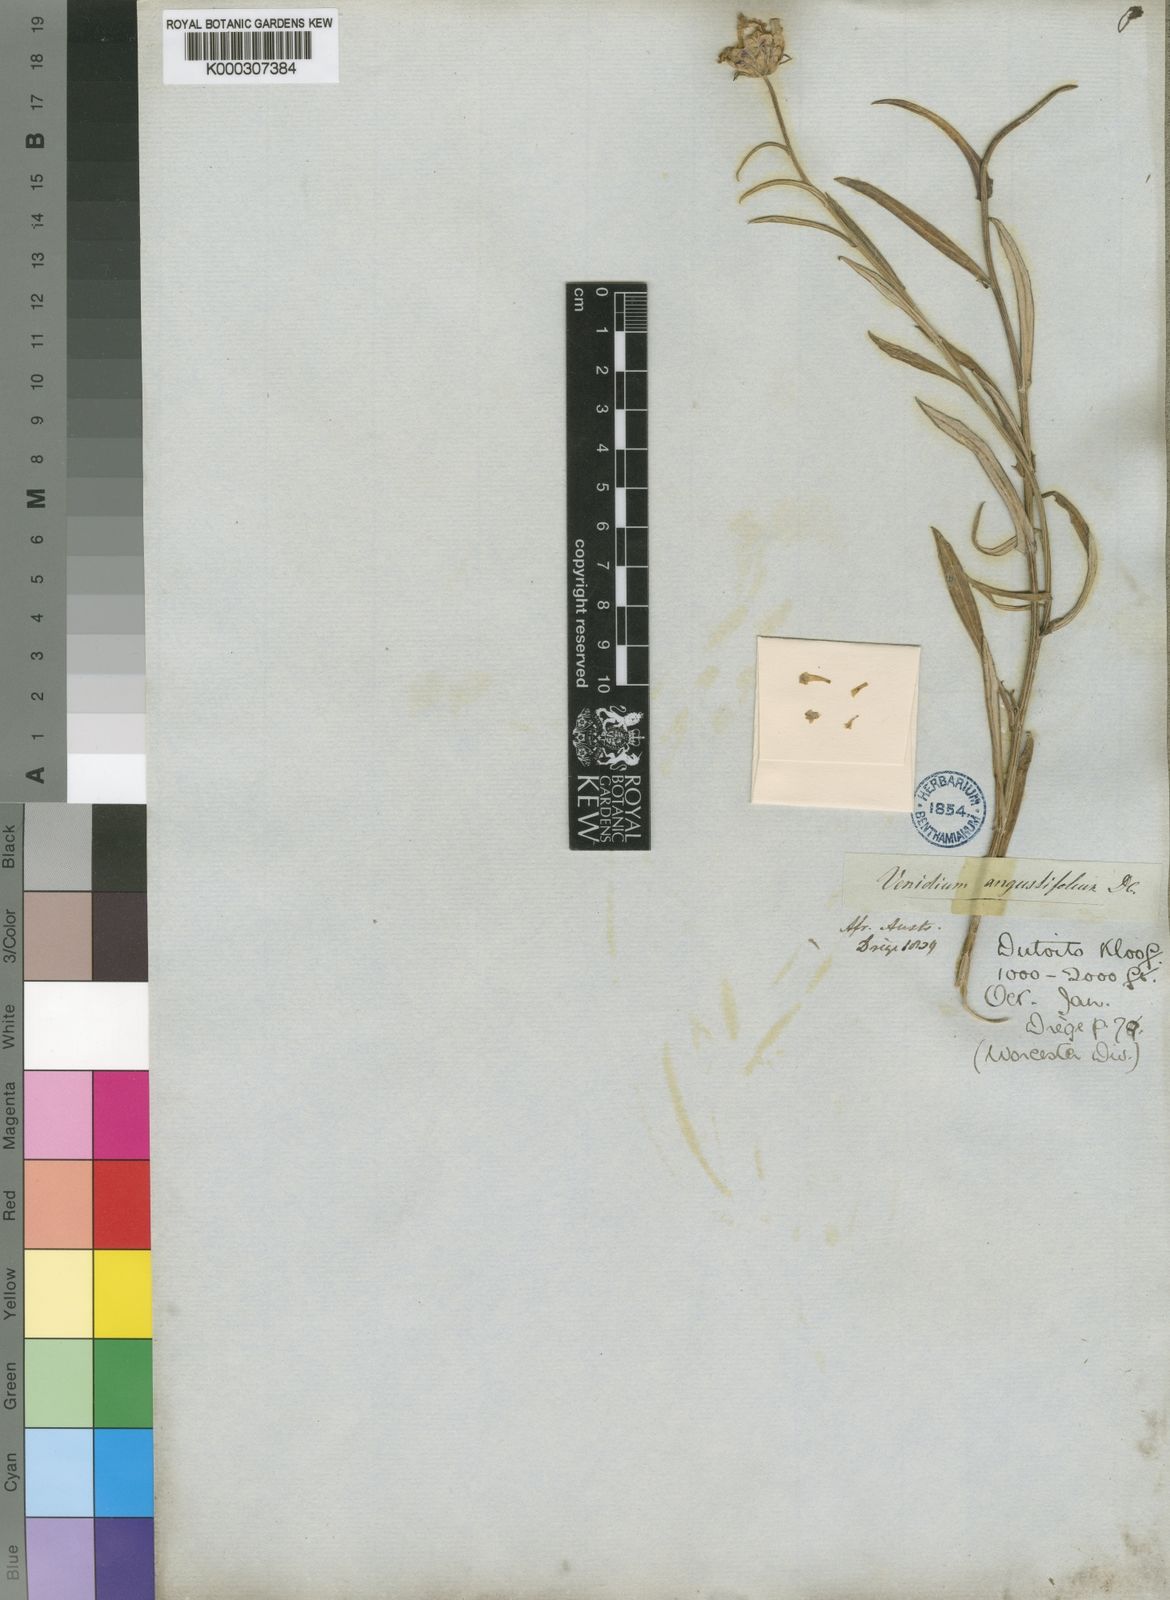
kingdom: Plantae
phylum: Tracheophyta
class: Magnoliopsida
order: Asterales
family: Asteraceae
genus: Arctotis
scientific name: Arctotis scabra
